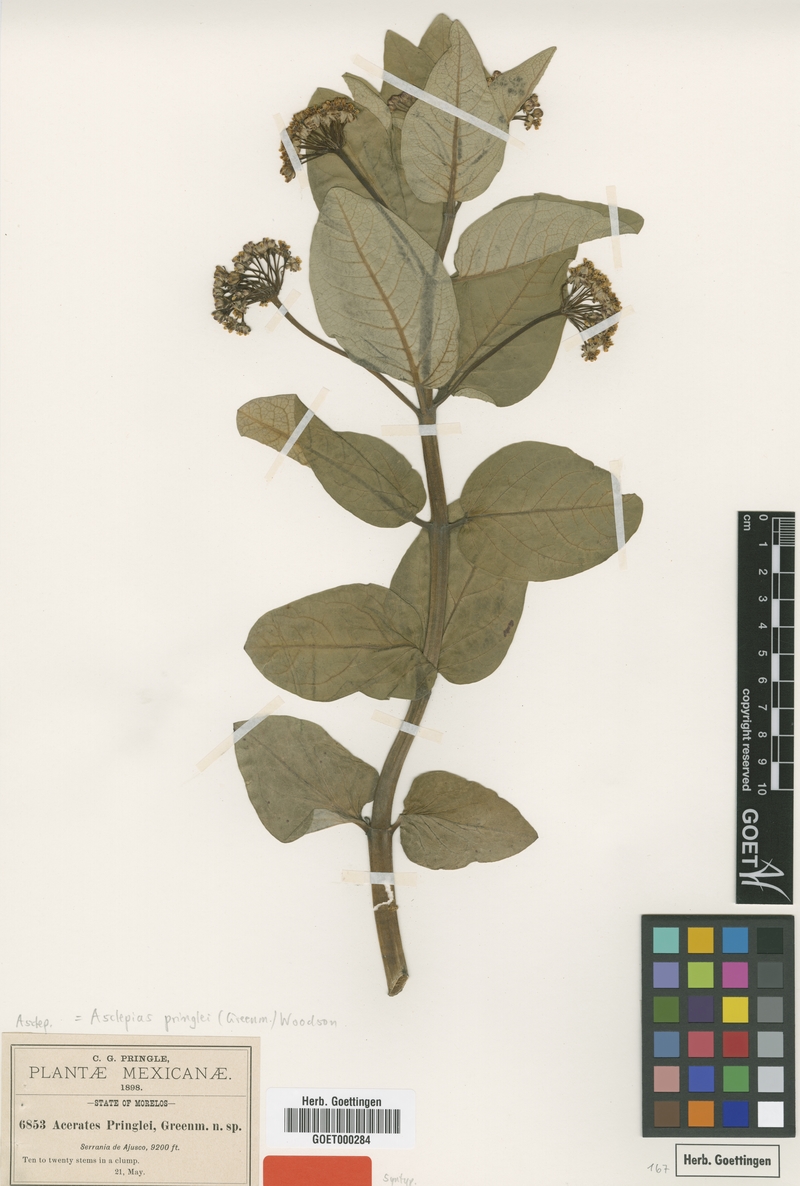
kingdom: Plantae
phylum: Tracheophyta
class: Magnoliopsida
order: Gentianales
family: Apocynaceae
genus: Asclepias
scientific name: Asclepias pringlei
